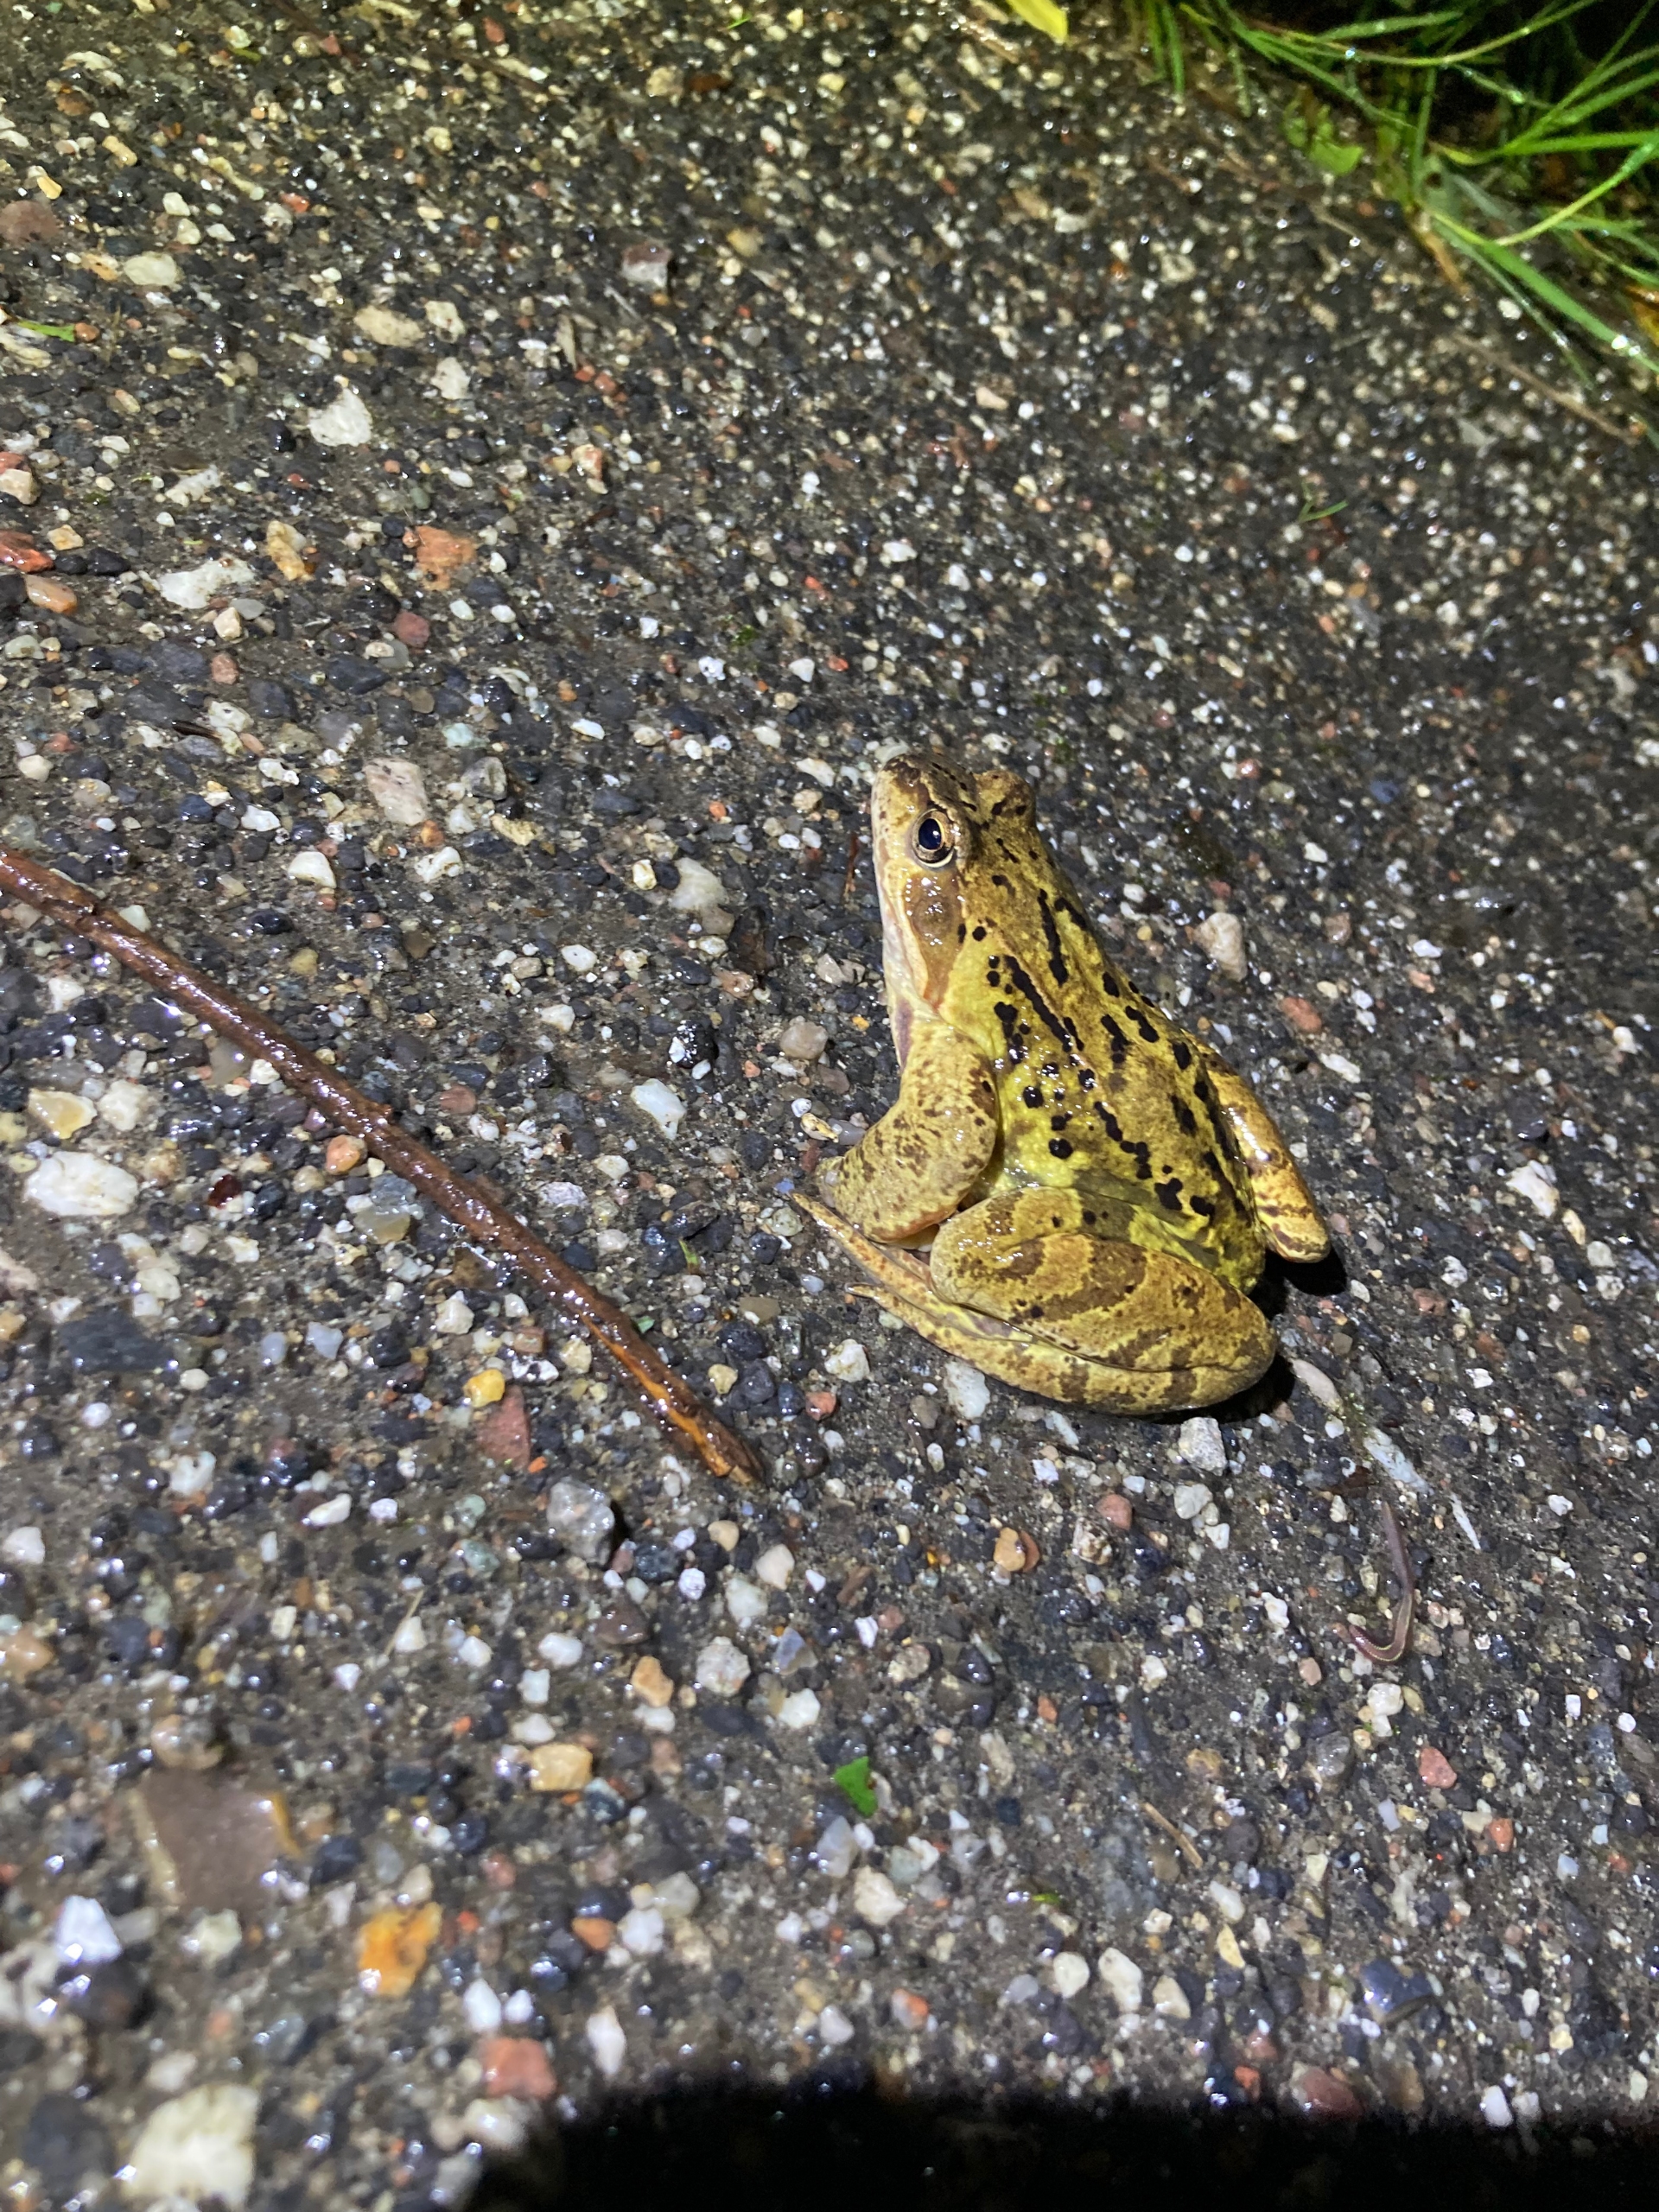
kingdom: Animalia
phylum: Chordata
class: Amphibia
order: Anura
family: Ranidae
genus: Rana
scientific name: Rana temporaria
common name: Butsnudet frø
